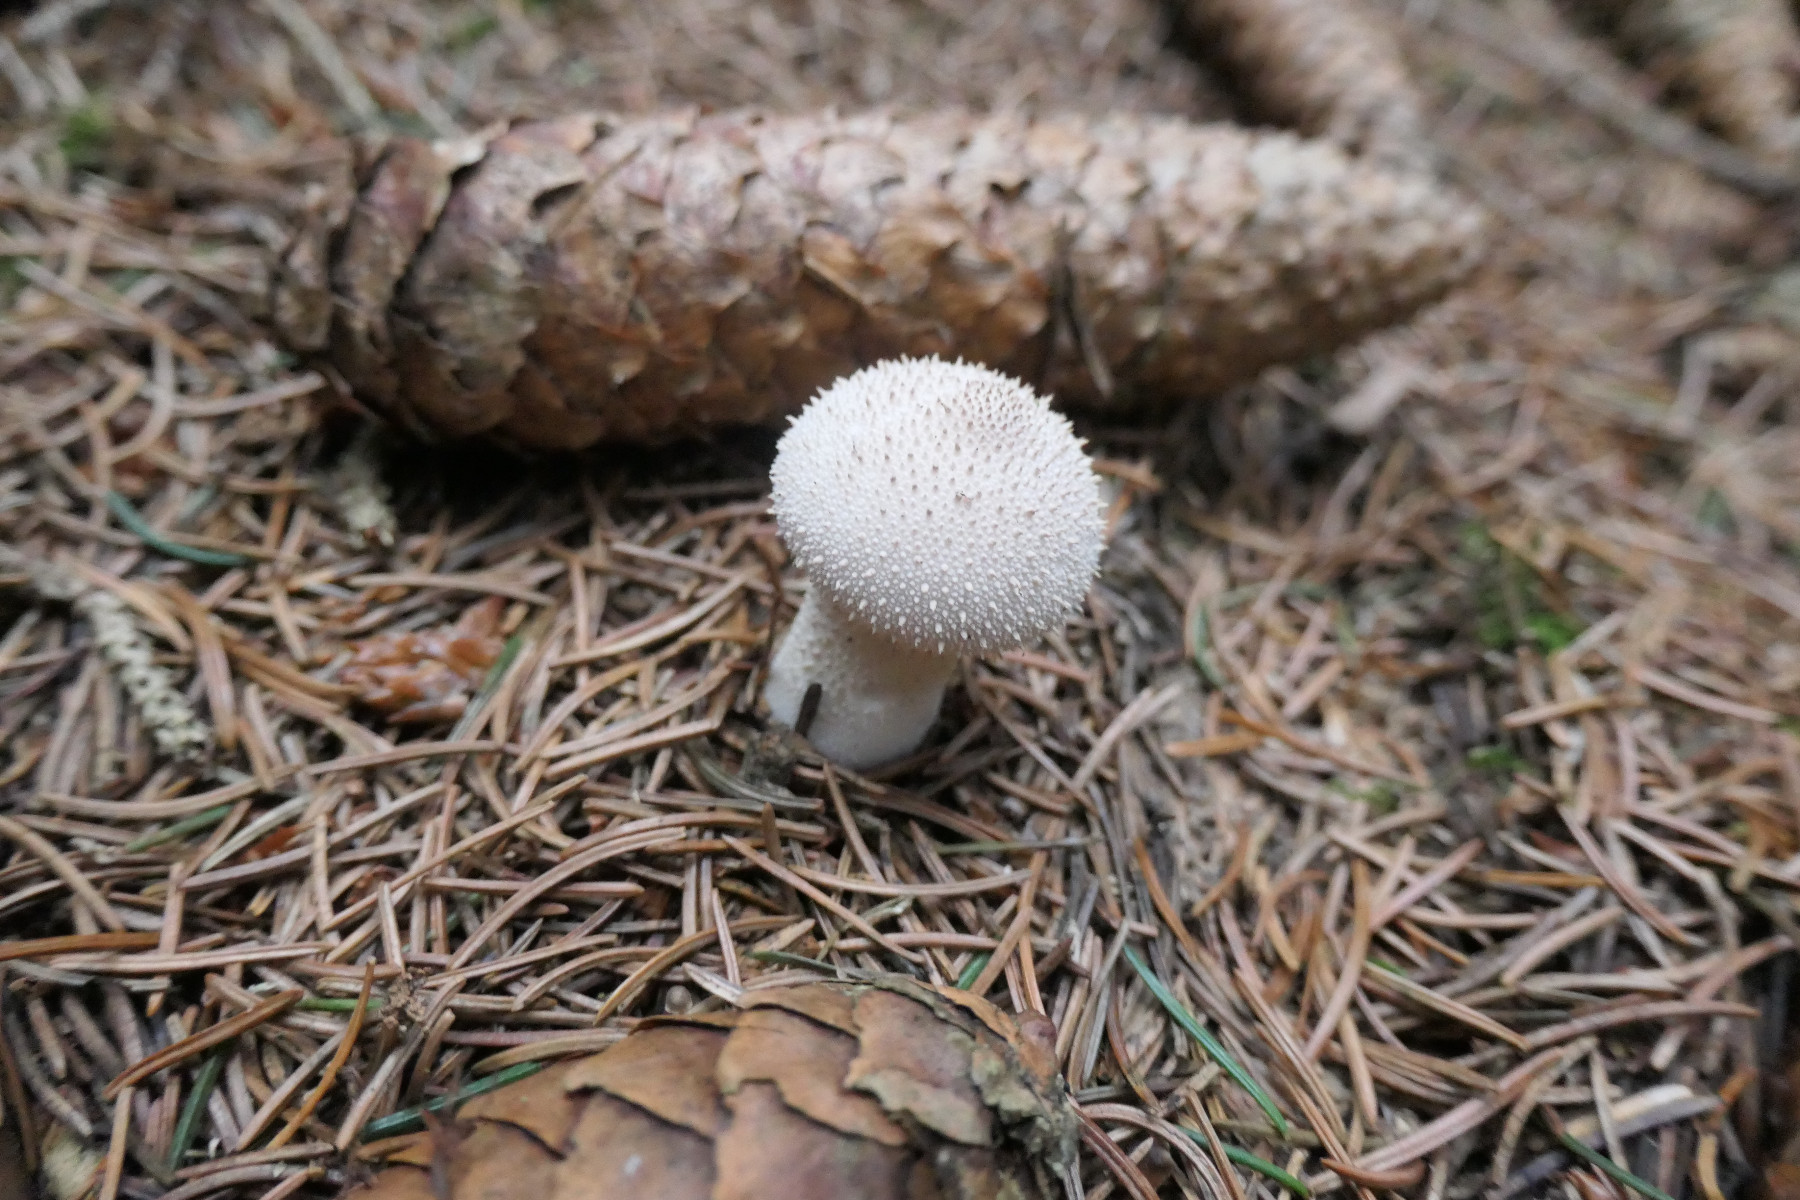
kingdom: Fungi
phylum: Basidiomycota
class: Agaricomycetes
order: Agaricales
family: Lycoperdaceae
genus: Lycoperdon
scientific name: Lycoperdon perlatum
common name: krystal-støvbold
